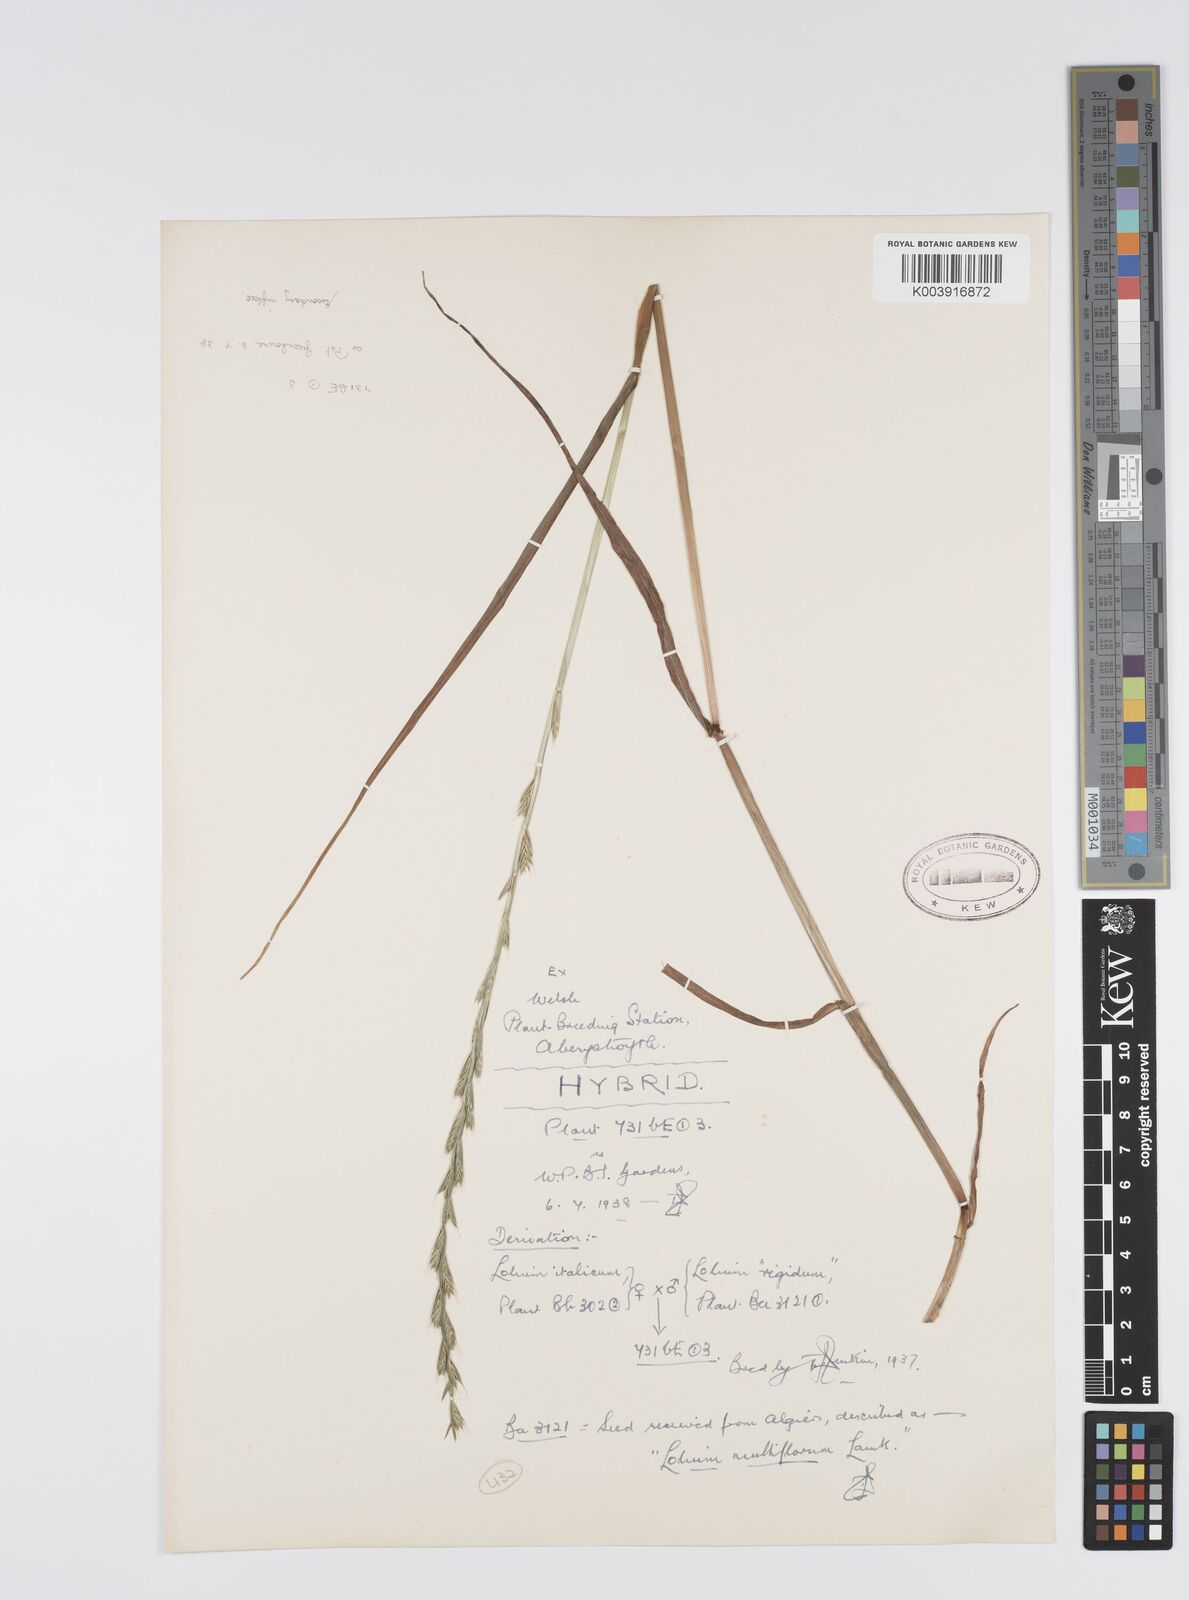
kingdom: Plantae
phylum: Tracheophyta
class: Liliopsida
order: Poales
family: Poaceae
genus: Lolium
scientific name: Lolium multiflorum
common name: Annual ryegrass
